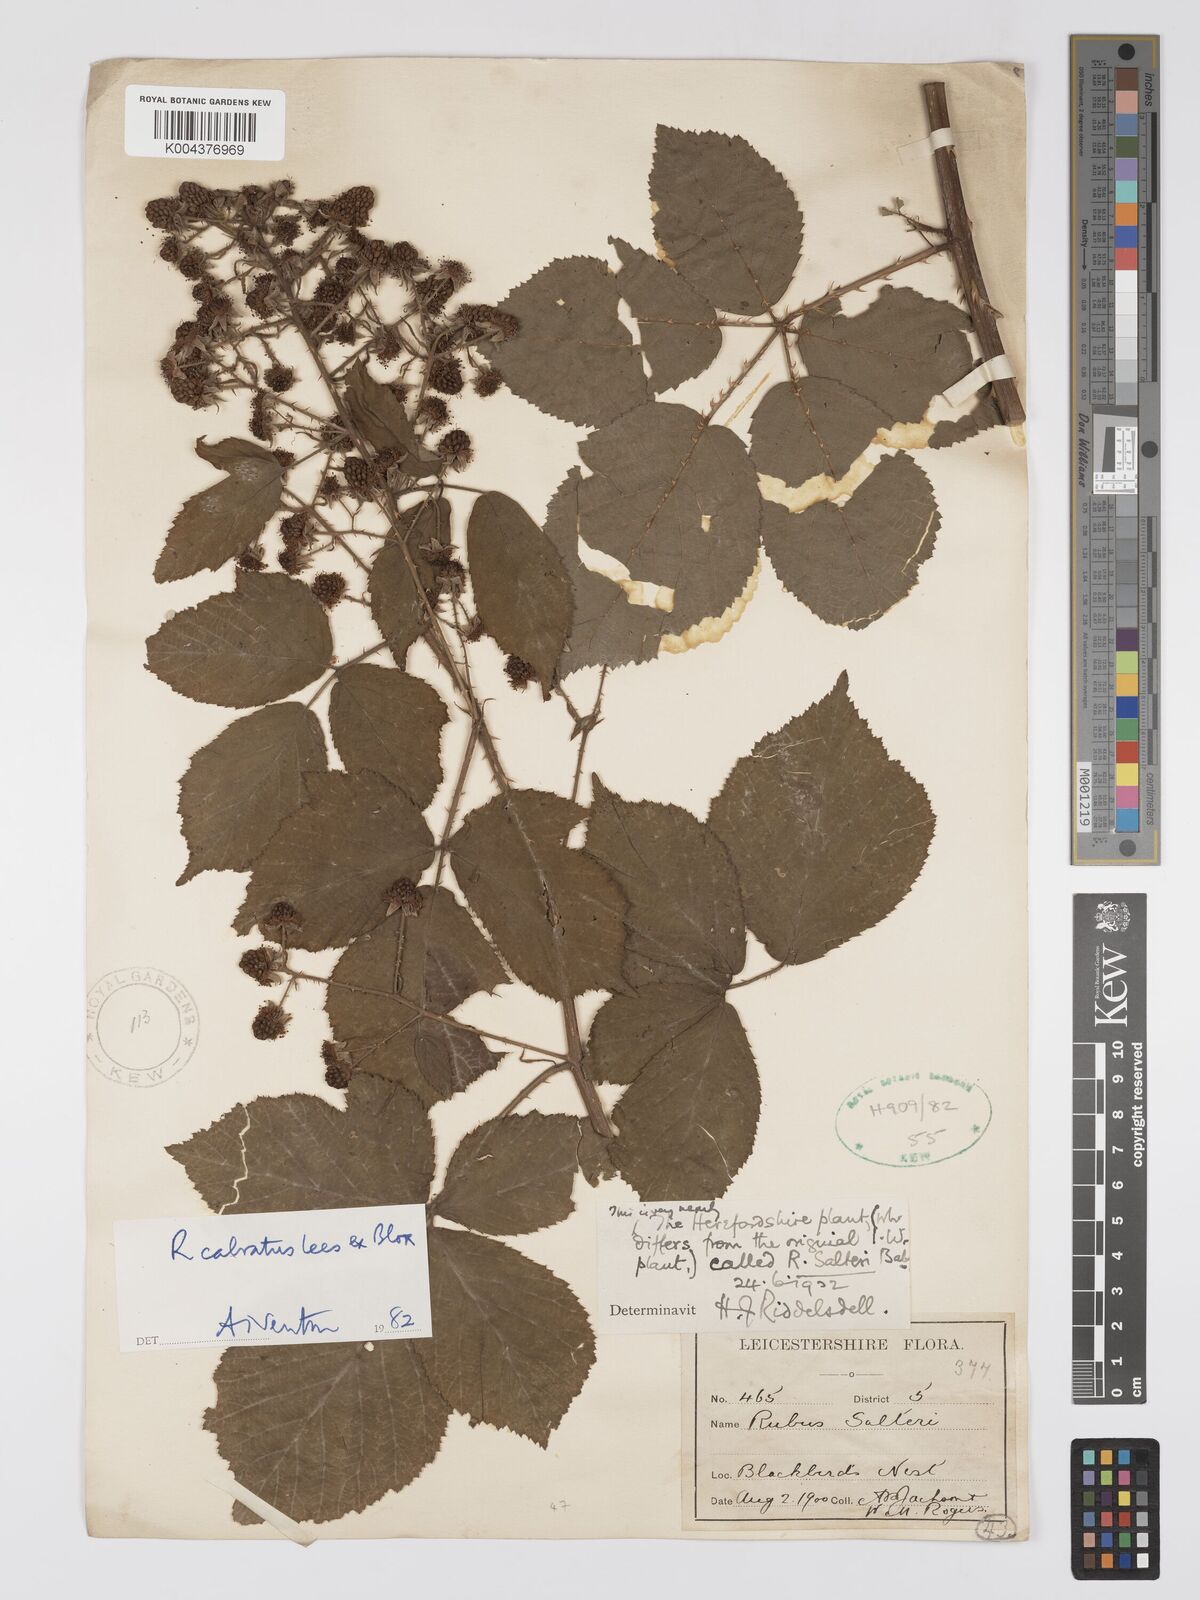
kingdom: Plantae
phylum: Tracheophyta
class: Magnoliopsida
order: Rosales
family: Rosaceae
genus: Rubus
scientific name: Rubus calvatus
